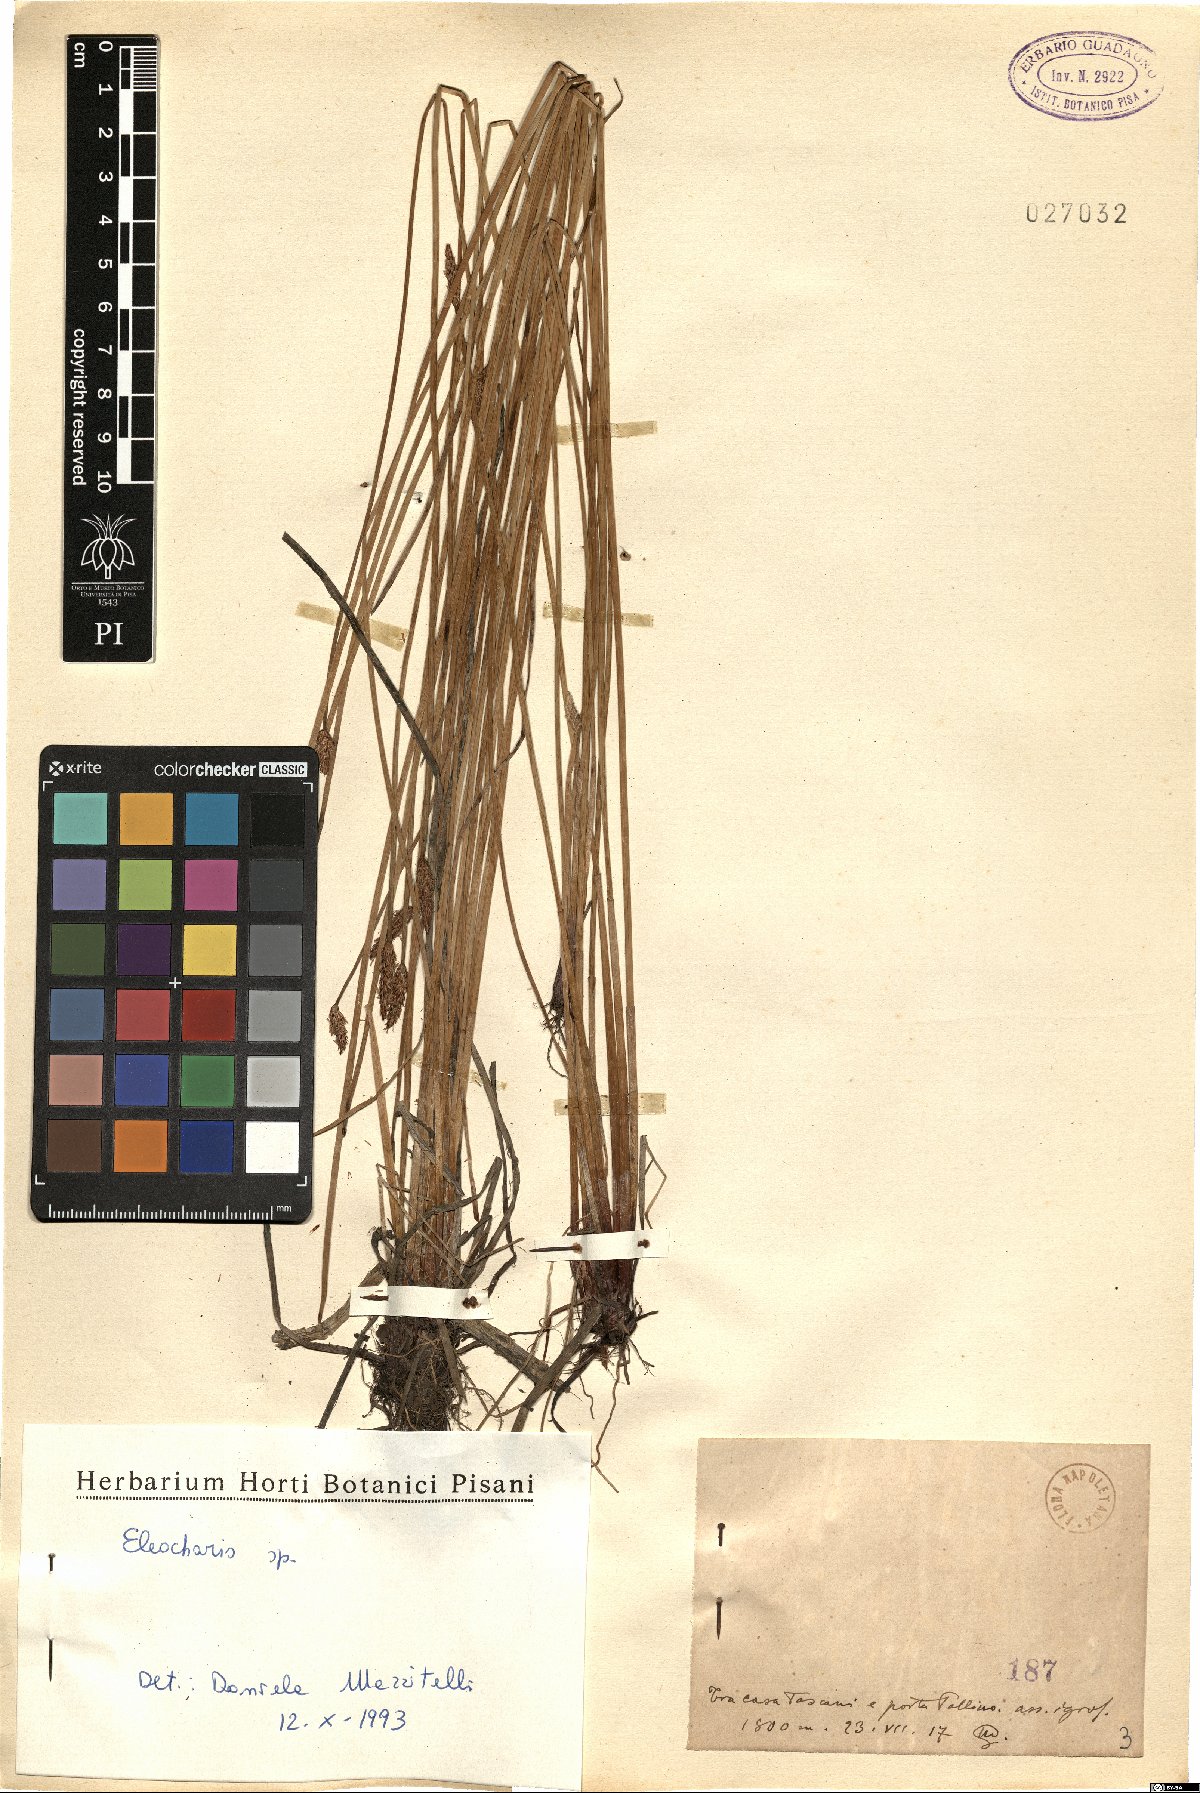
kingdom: Plantae
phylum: Tracheophyta
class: Liliopsida
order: Poales
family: Cyperaceae
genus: Eleocharis
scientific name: Eleocharis
